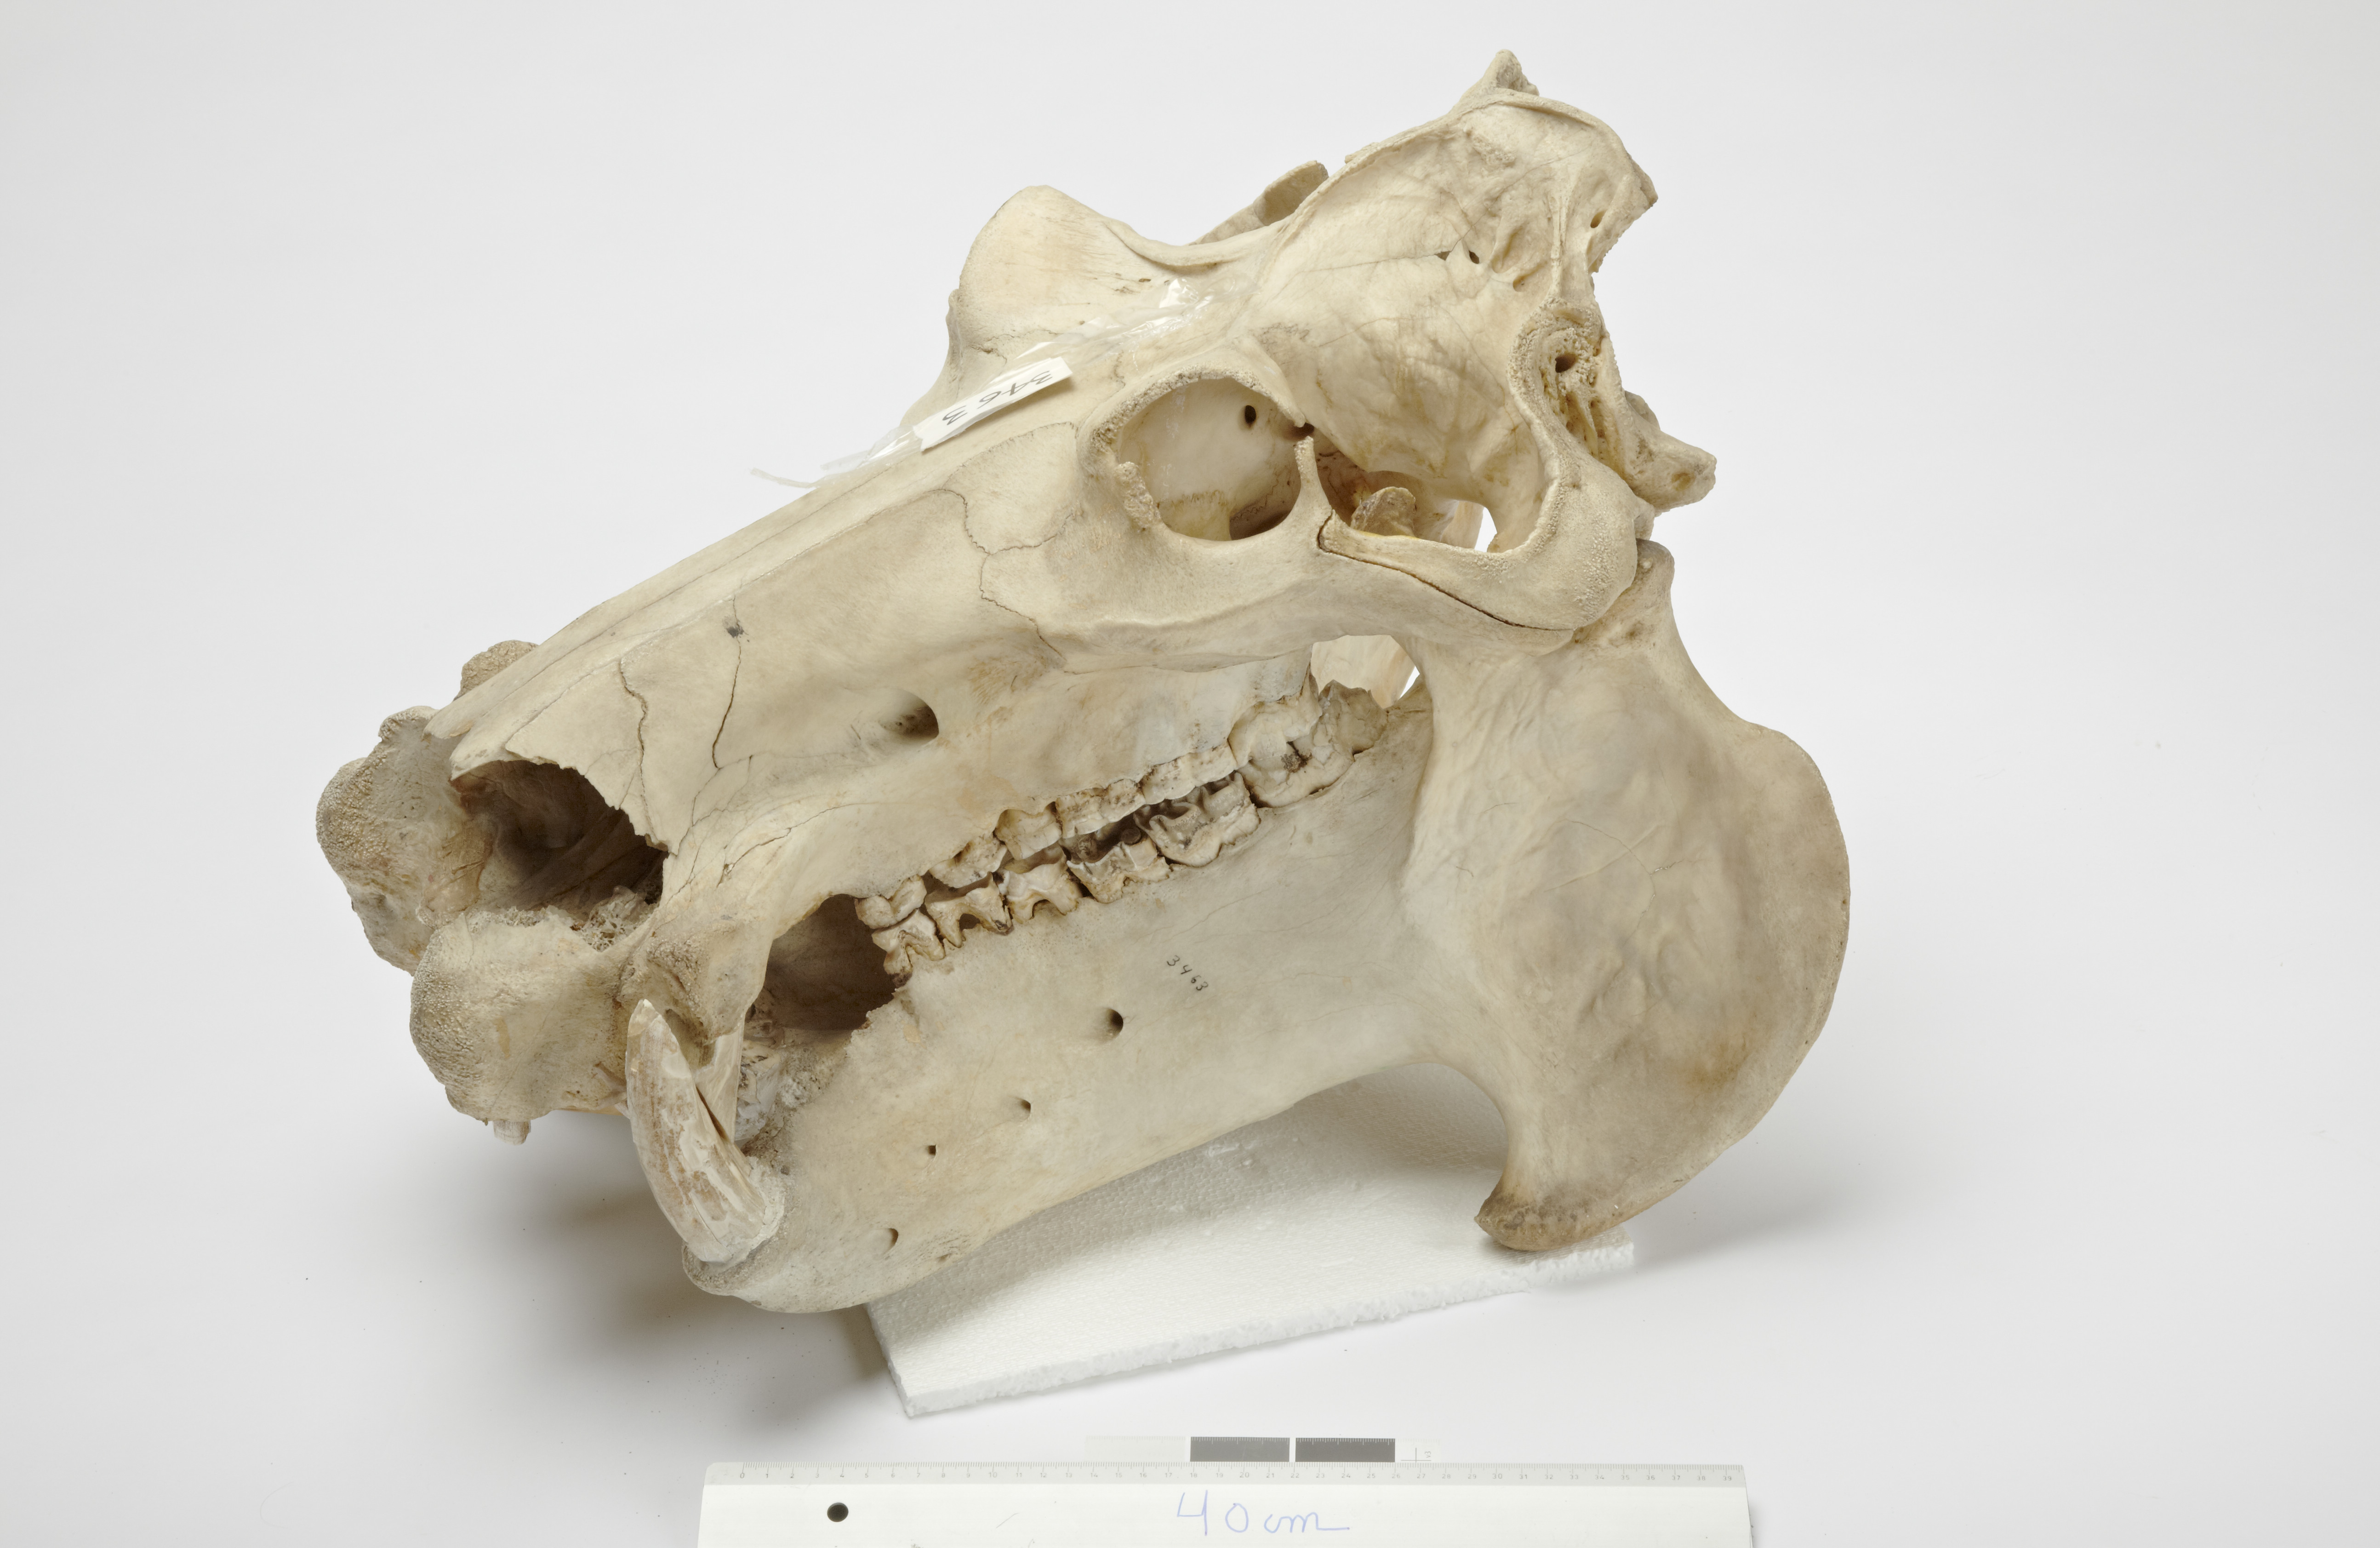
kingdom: Animalia
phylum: Chordata
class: Mammalia
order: Artiodactyla
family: Hippopotamidae
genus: Hippopotamus
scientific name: Hippopotamus amphibius
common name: Common hippopotamus
